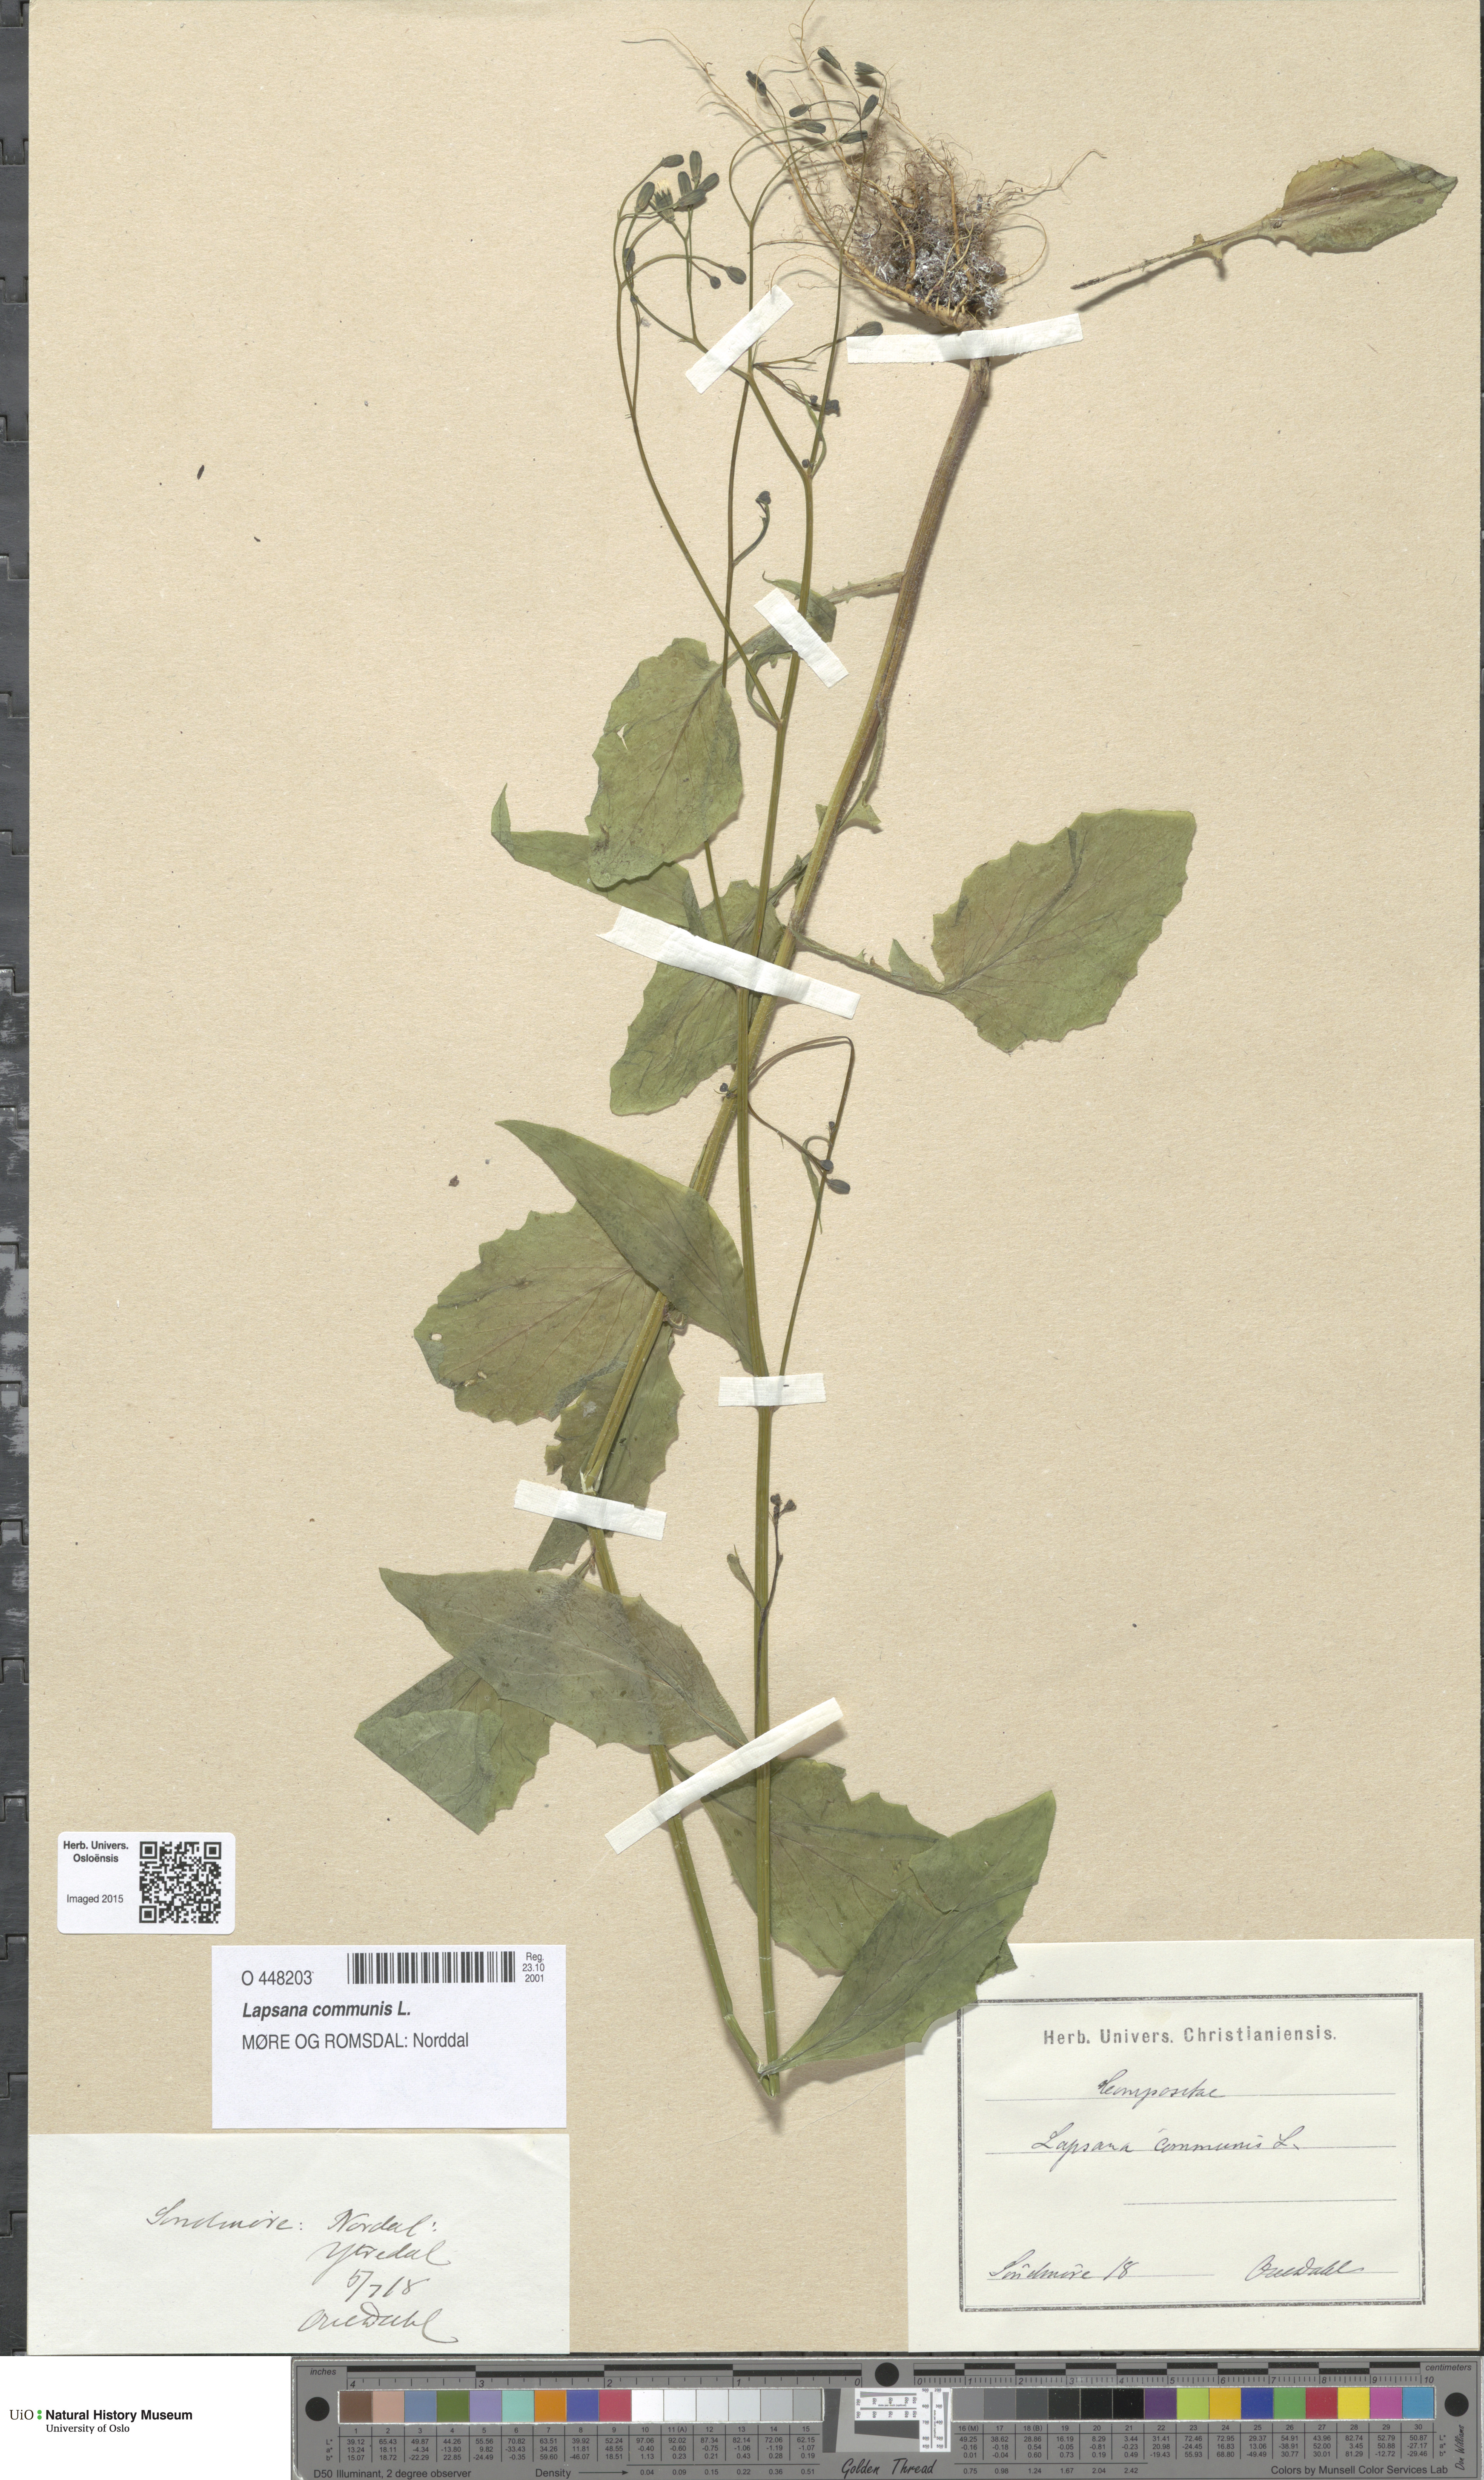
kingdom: Plantae
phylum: Tracheophyta
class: Magnoliopsida
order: Asterales
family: Asteraceae
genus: Lapsana
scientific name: Lapsana communis
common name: Nipplewort
